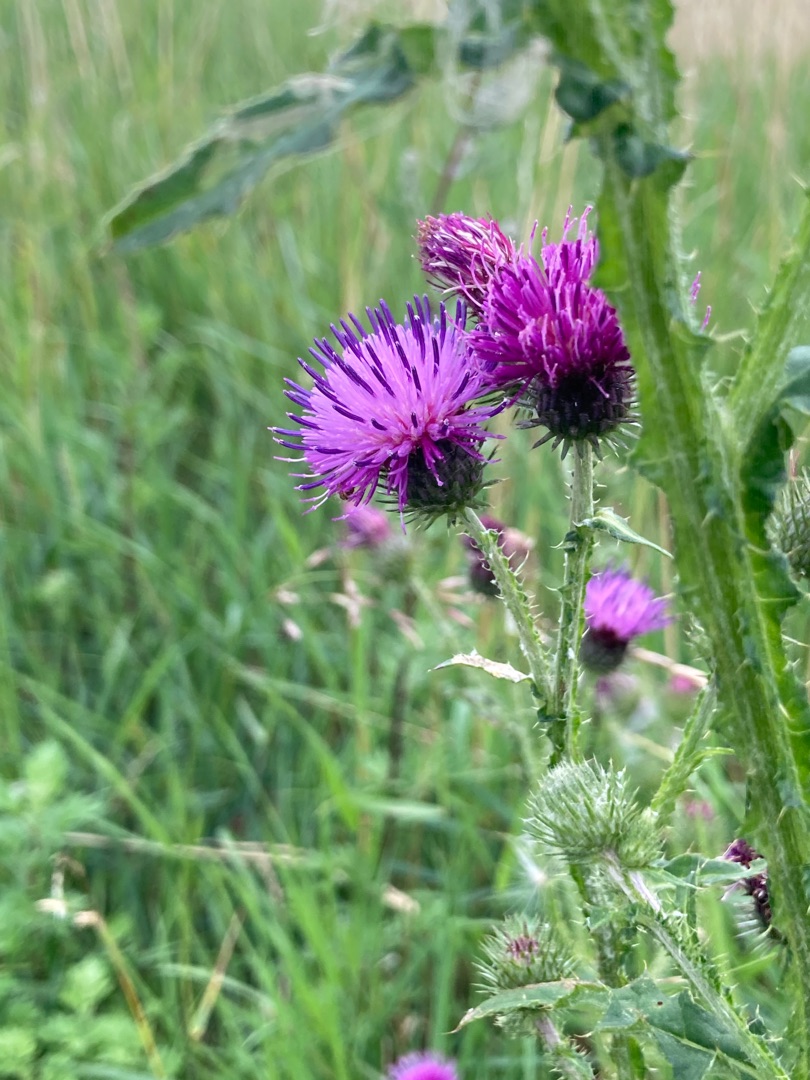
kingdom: Plantae
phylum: Tracheophyta
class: Magnoliopsida
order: Asterales
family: Asteraceae
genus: Carduus
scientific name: Carduus crispus
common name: Kruset tidsel
